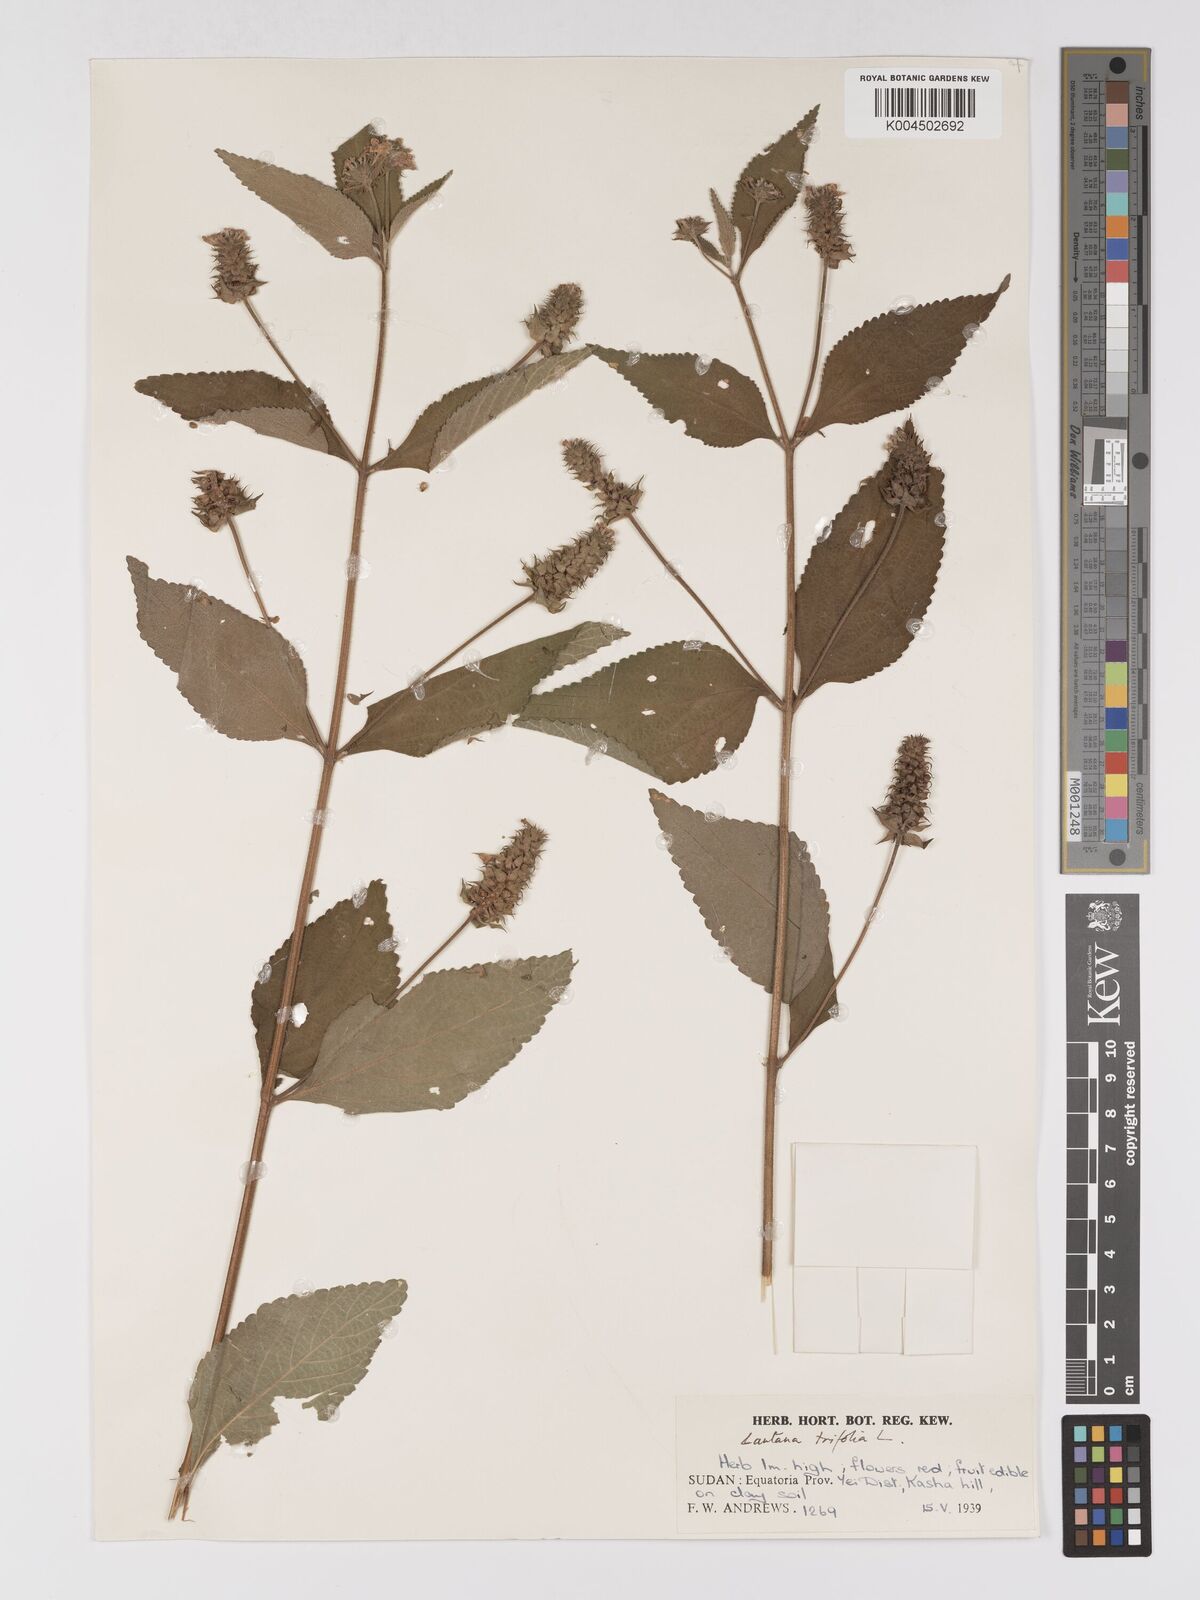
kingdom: Plantae
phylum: Tracheophyta
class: Magnoliopsida
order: Lamiales
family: Verbenaceae
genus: Lantana
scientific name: Lantana trifolia
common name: Sweet-sage
